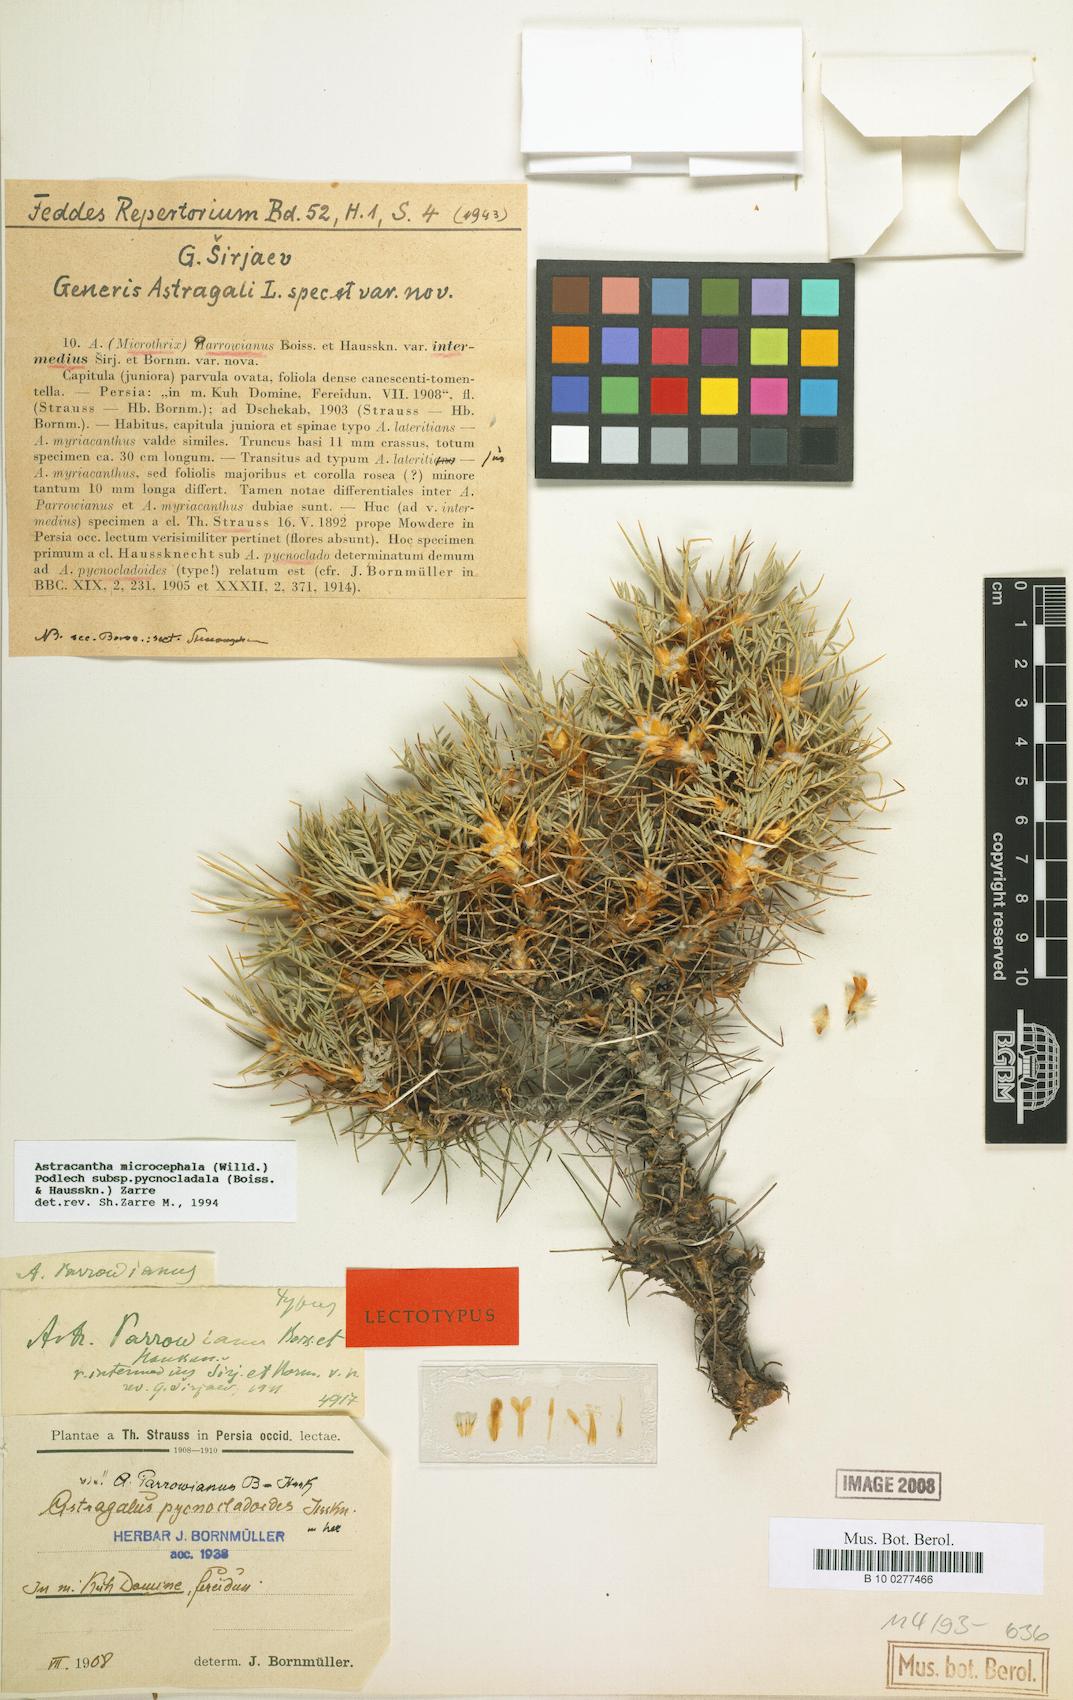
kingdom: Plantae
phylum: Tracheophyta
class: Magnoliopsida
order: Fabales
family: Fabaceae
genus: Astragalus
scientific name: Astragalus microcephalus
